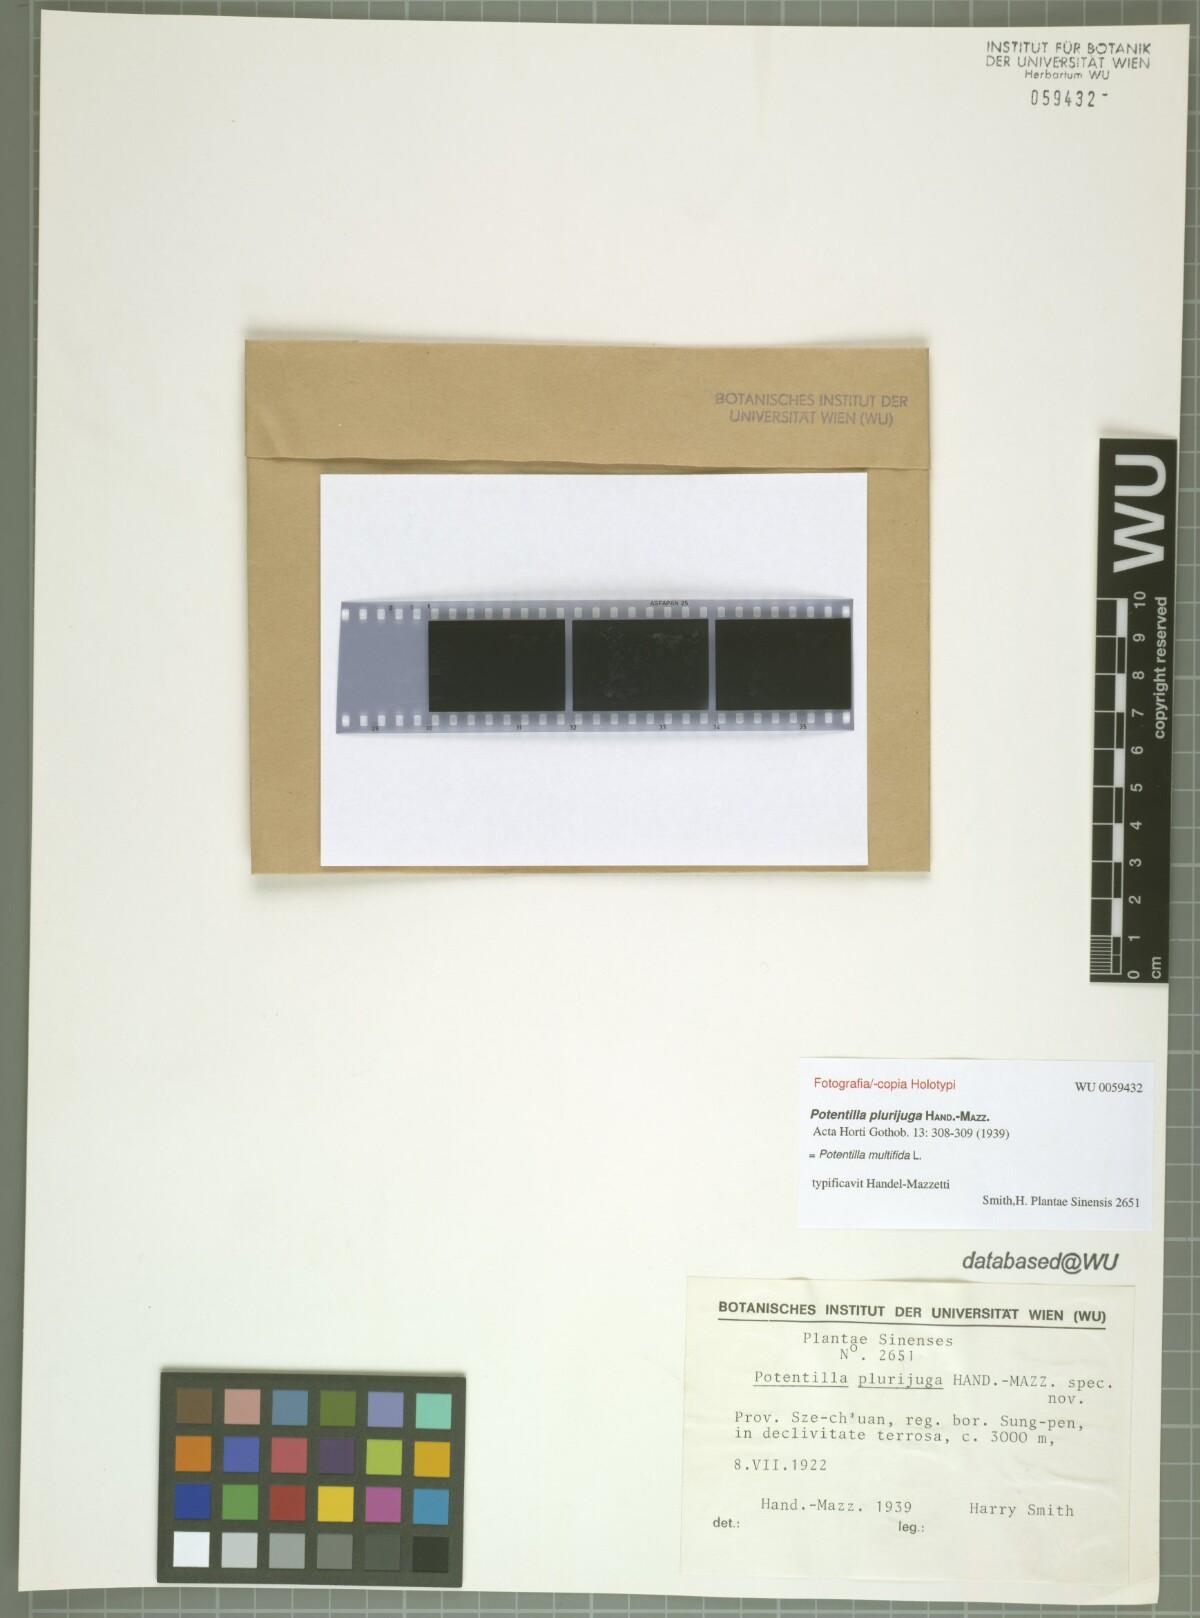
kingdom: Plantae
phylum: Tracheophyta
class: Magnoliopsida
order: Rosales
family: Rosaceae
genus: Potentilla
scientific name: Potentilla multifida
